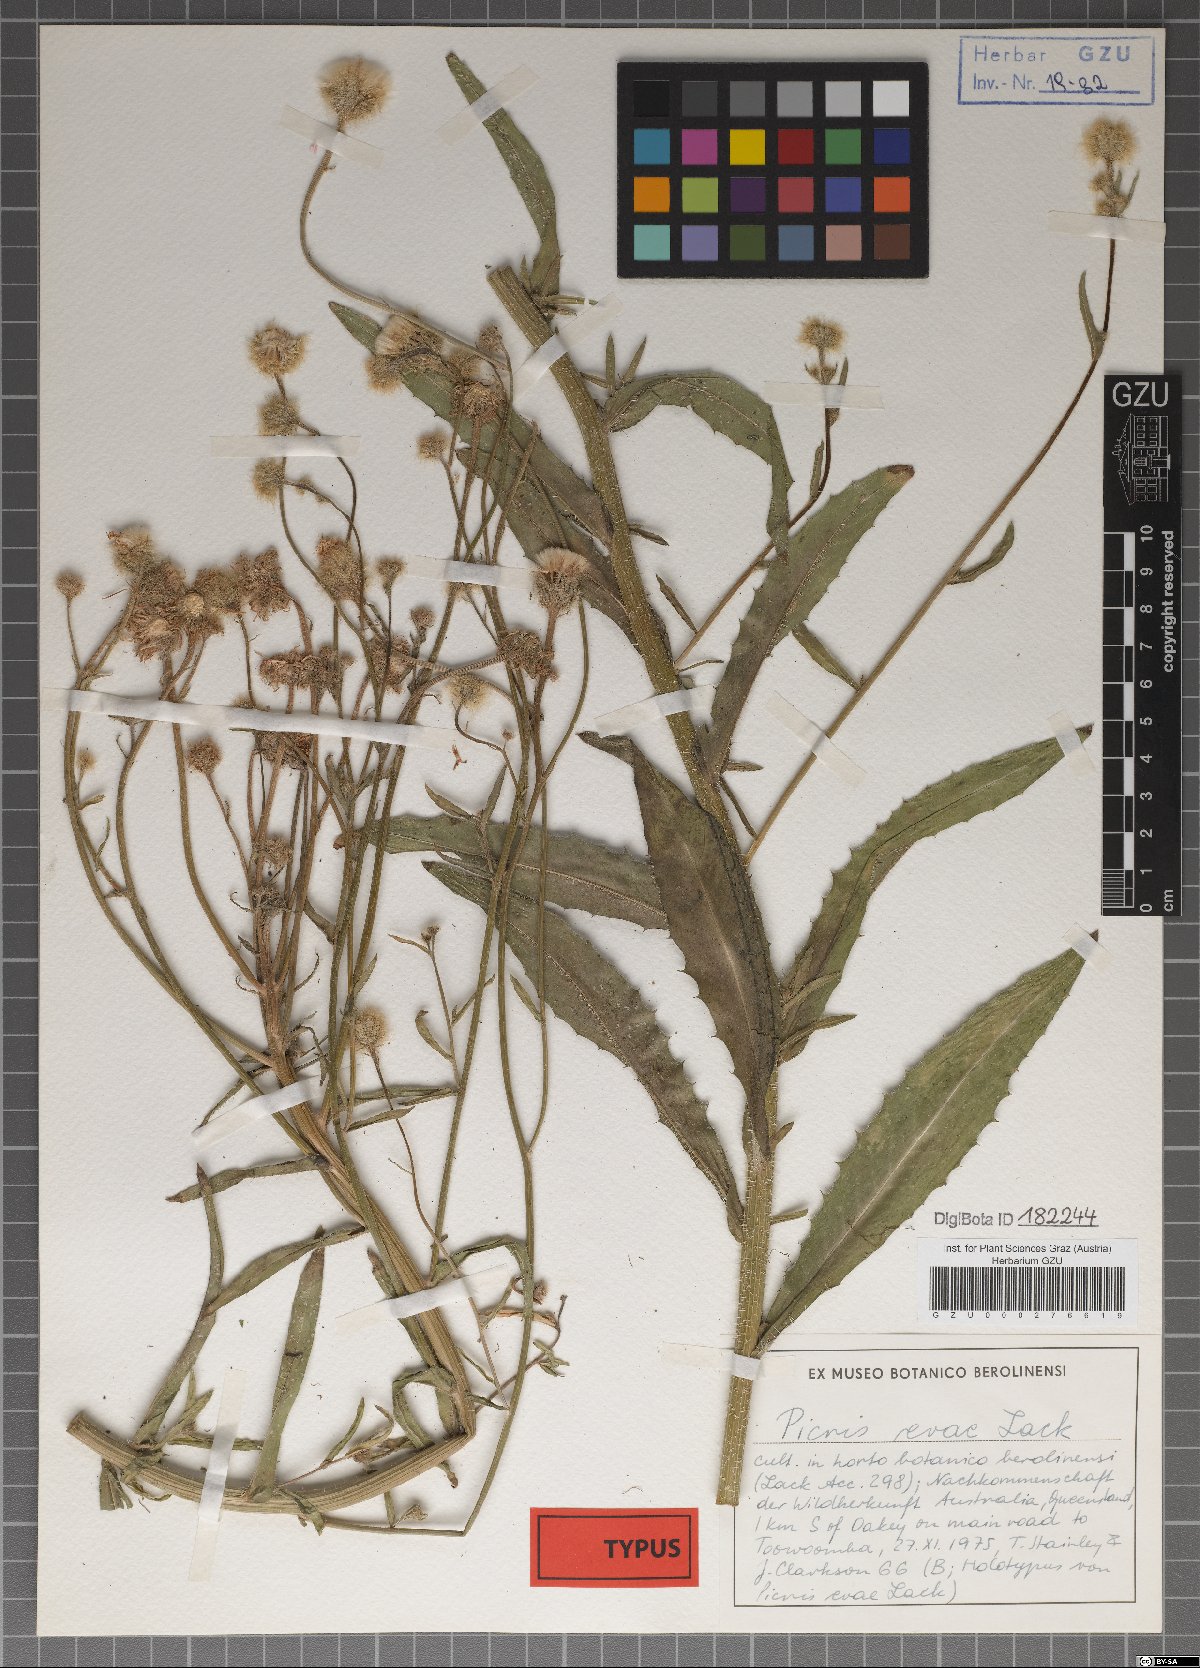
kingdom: Plantae
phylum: Tracheophyta
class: Magnoliopsida
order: Asterales
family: Asteraceae
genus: Picris
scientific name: Picris evae
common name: Hawkweed
